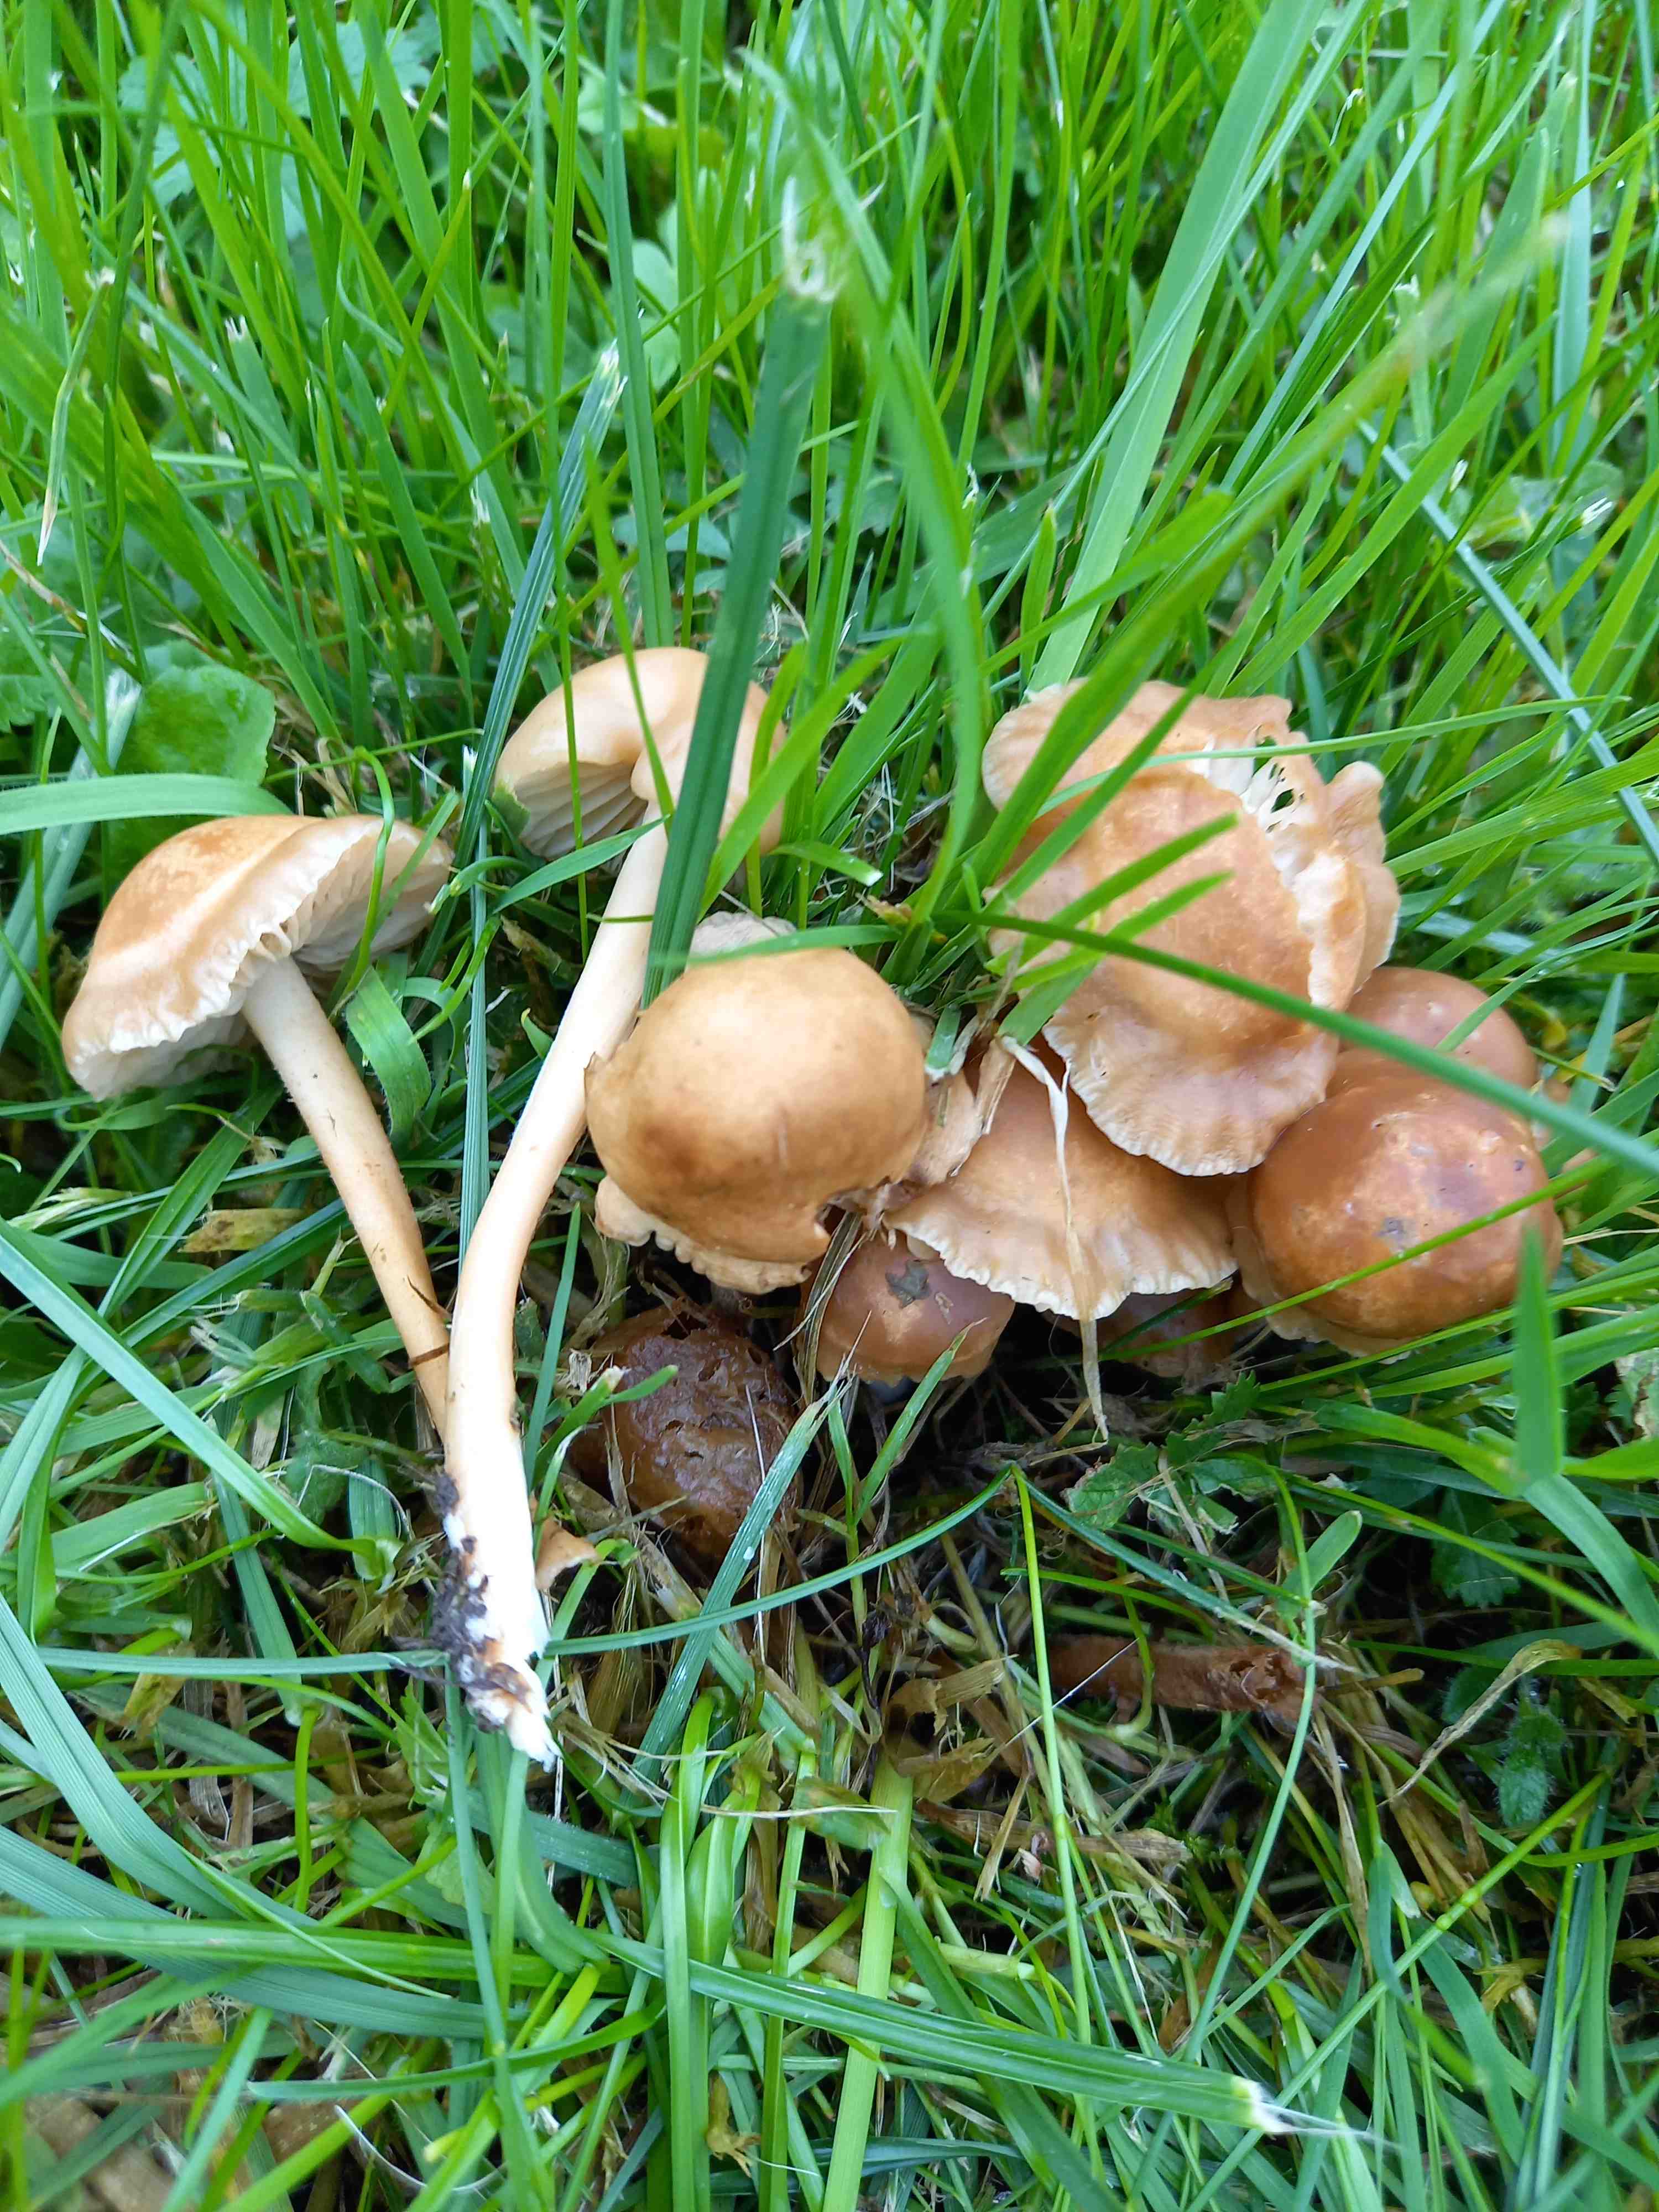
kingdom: Fungi
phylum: Basidiomycota
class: Agaricomycetes
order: Agaricales
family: Marasmiaceae
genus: Marasmius
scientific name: Marasmius oreades
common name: elledans-bruskhat
